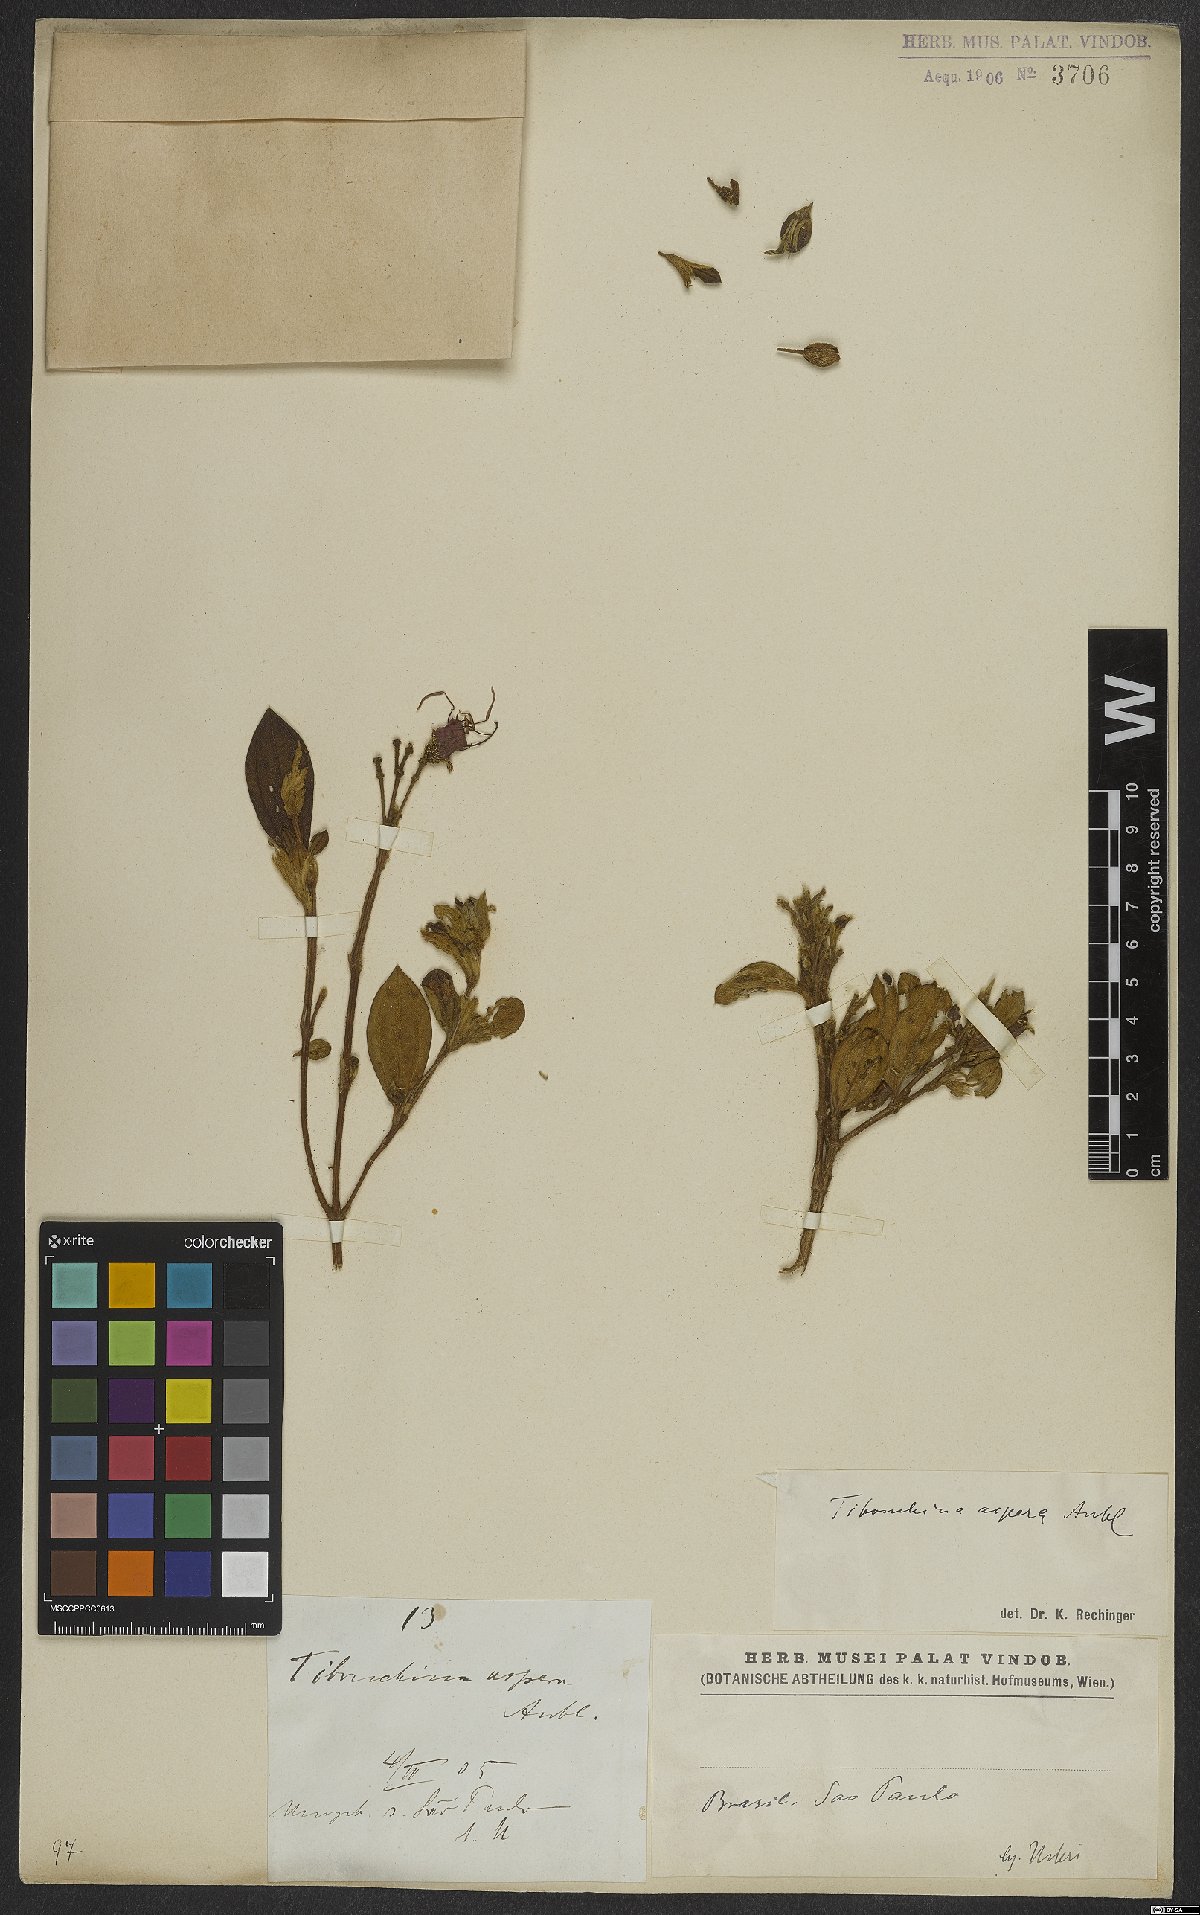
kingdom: Plantae
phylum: Tracheophyta
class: Magnoliopsida
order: Myrtales
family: Melastomataceae
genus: Tibouchina
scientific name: Tibouchina aspera
